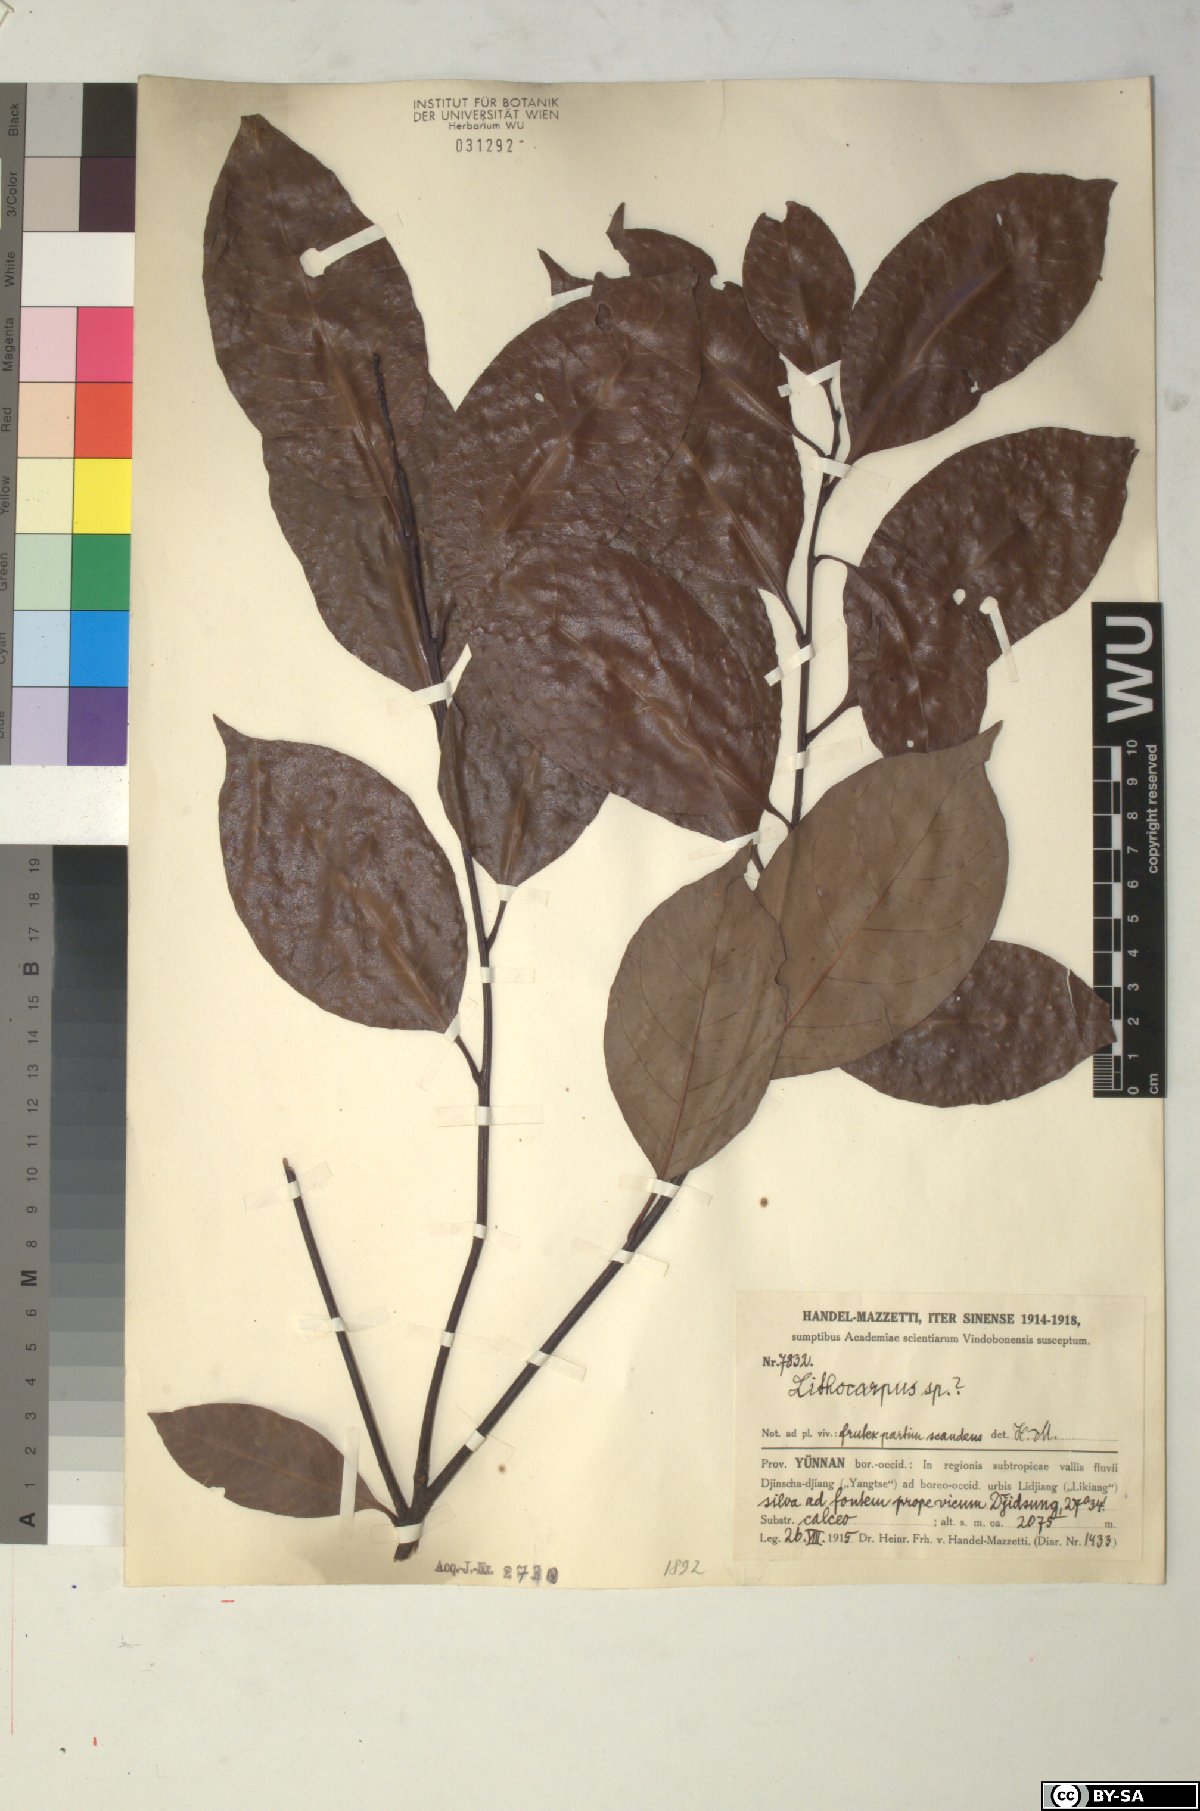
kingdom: Plantae
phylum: Tracheophyta
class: Magnoliopsida
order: Fagales
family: Fagaceae
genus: Lithocarpus
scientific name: Lithocarpus
